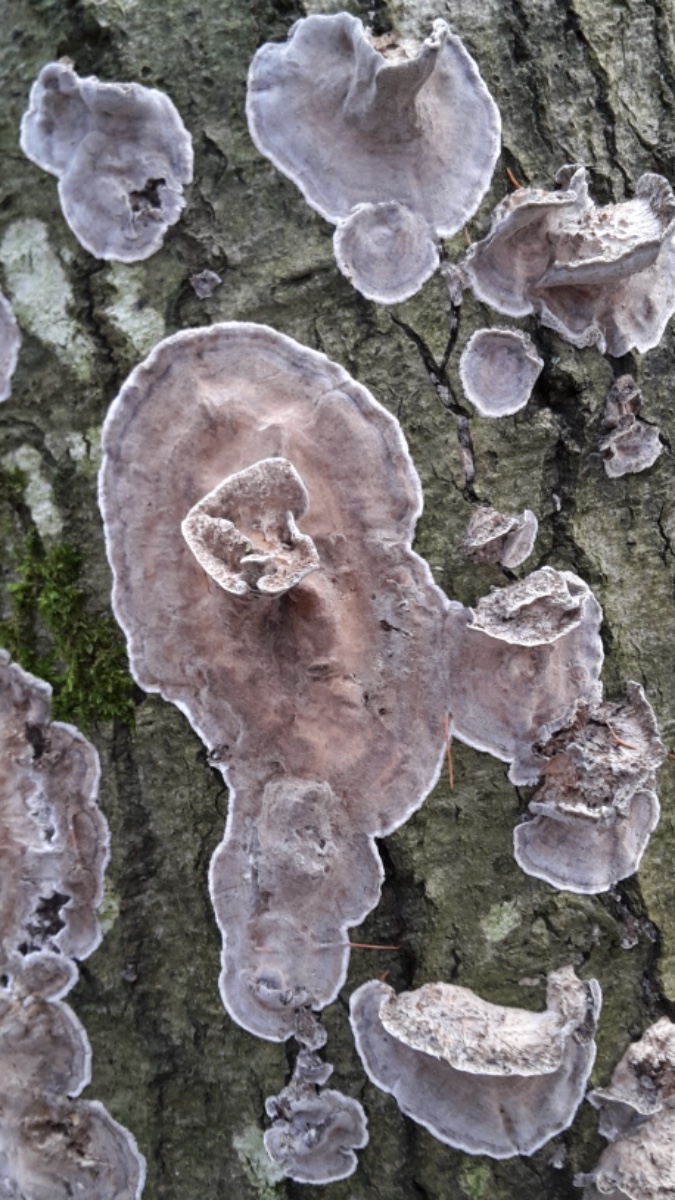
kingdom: Fungi
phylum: Basidiomycota
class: Agaricomycetes
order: Polyporales
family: Phanerochaetaceae
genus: Bjerkandera
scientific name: Bjerkandera adusta
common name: sveden sodporesvamp
